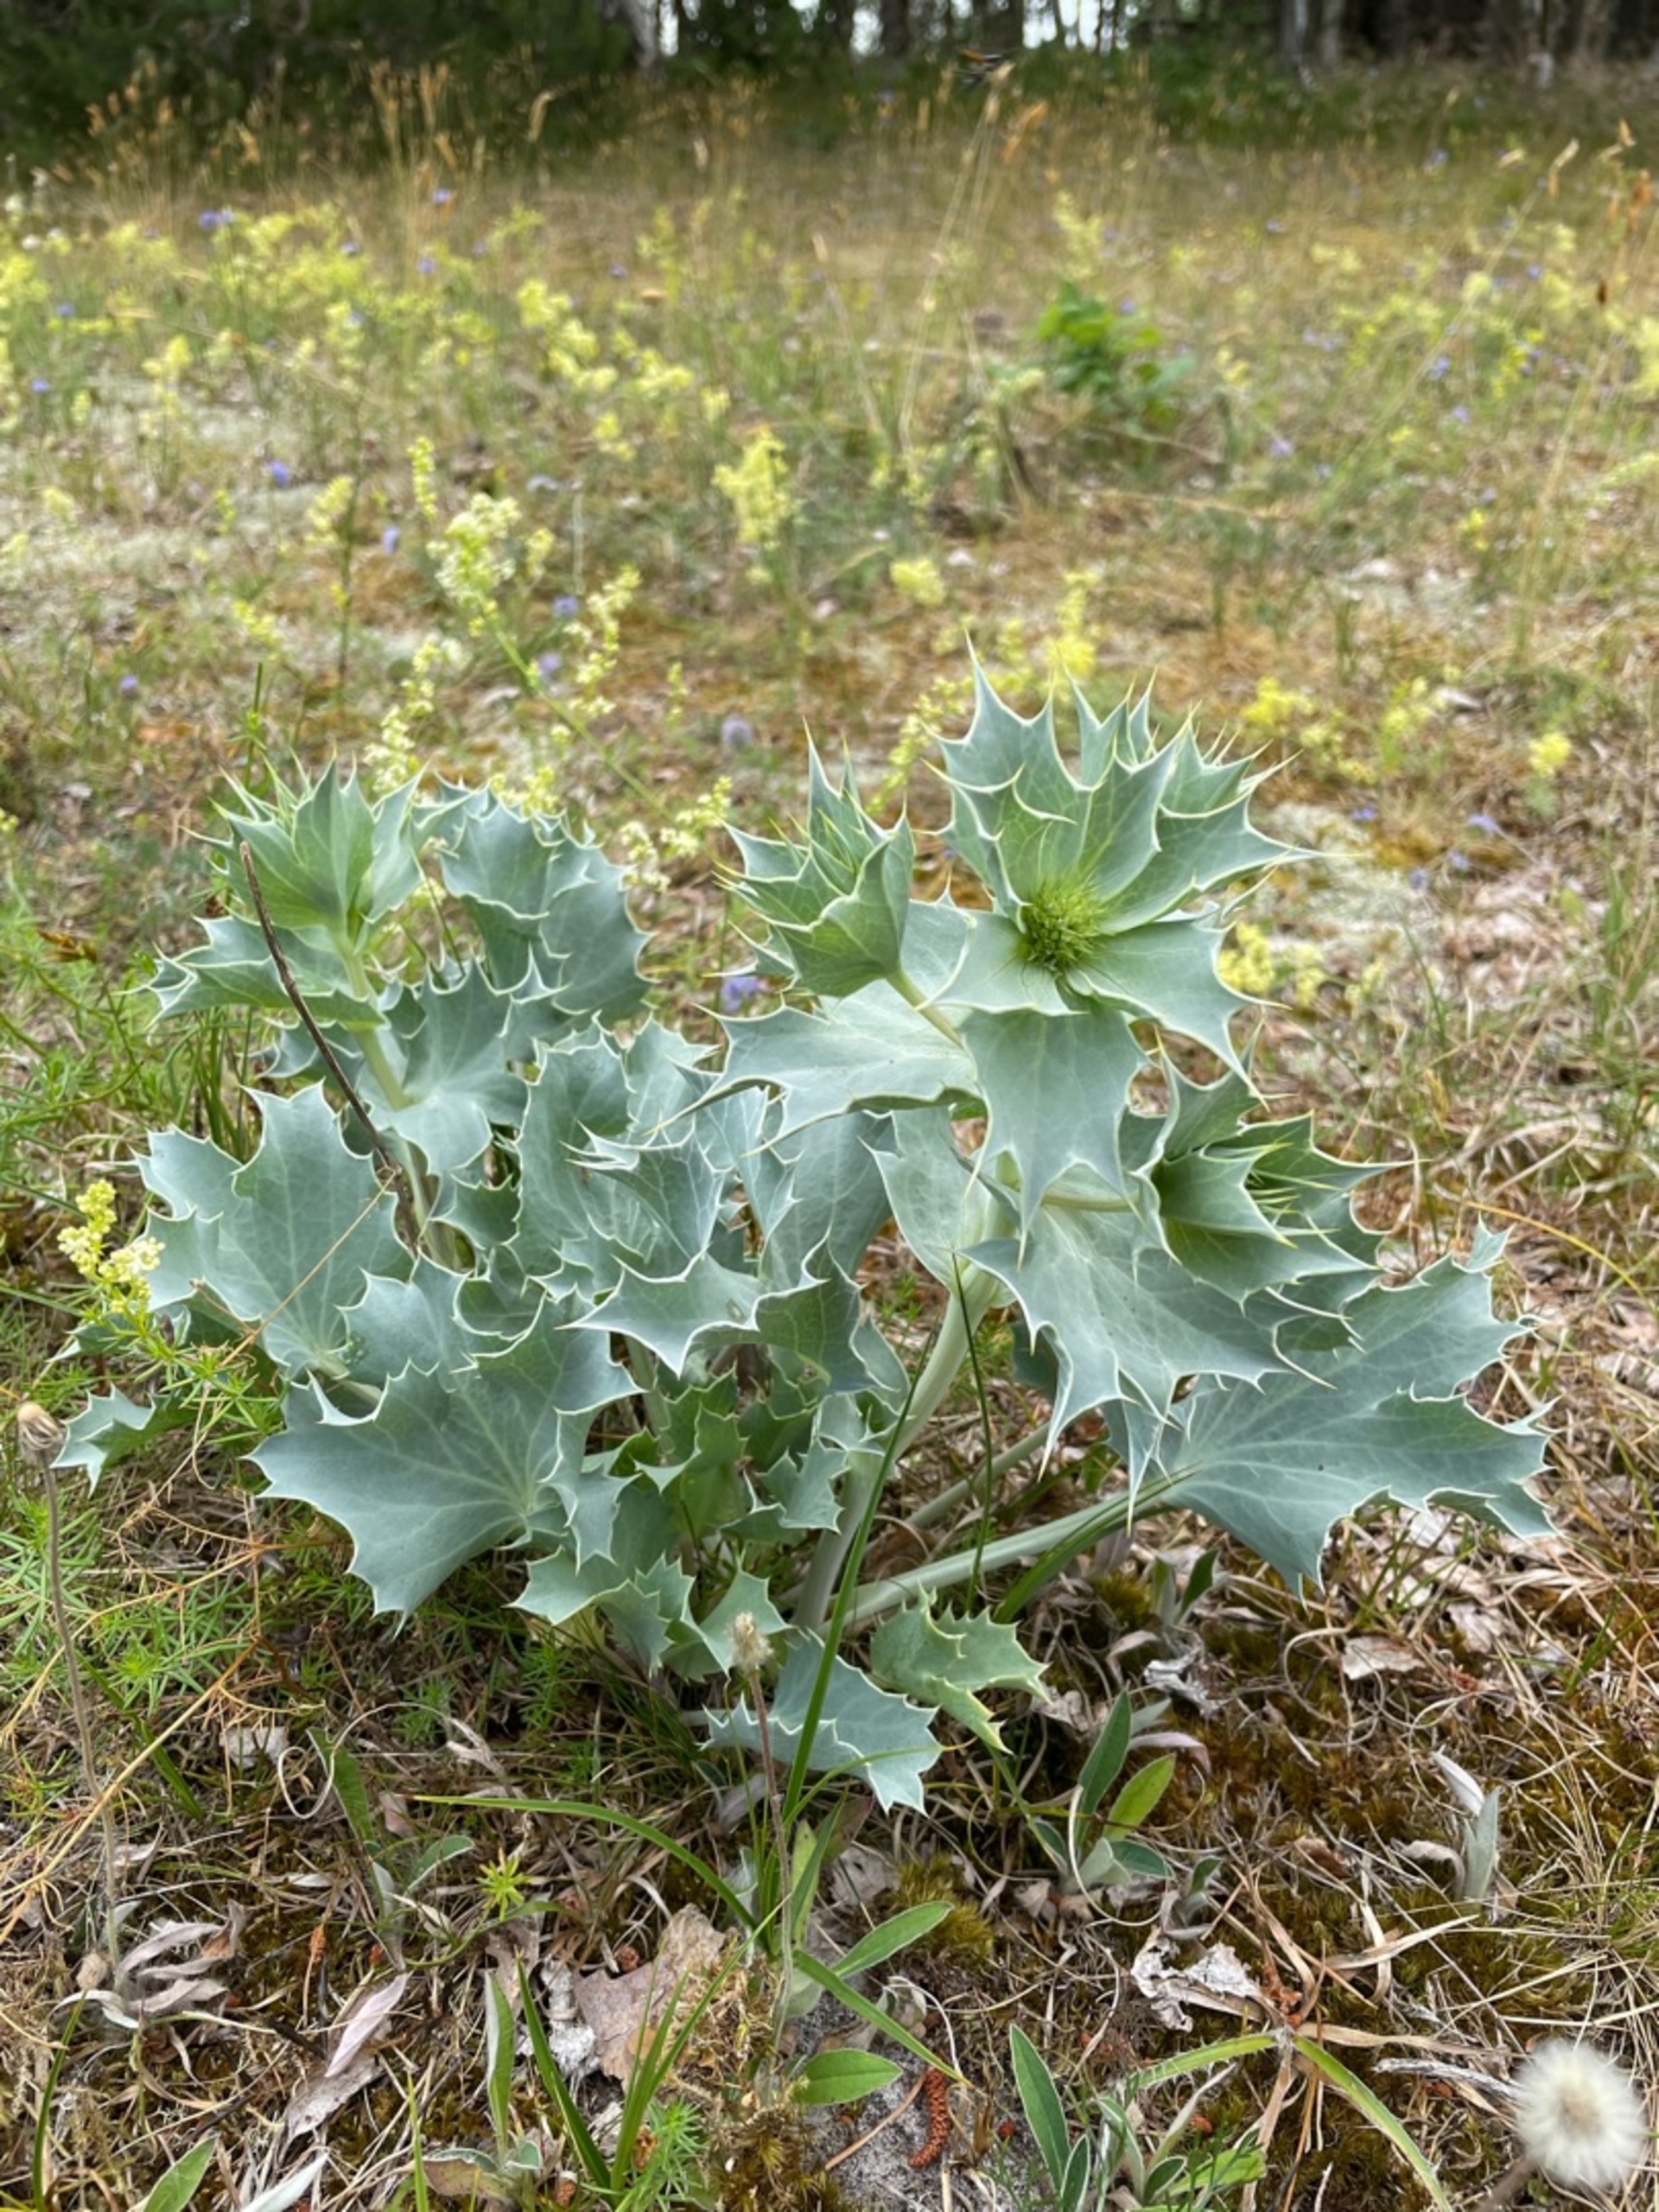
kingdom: Plantae
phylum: Tracheophyta
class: Magnoliopsida
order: Apiales
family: Apiaceae
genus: Eryngium
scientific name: Eryngium maritimum
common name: Strand-mandstro
